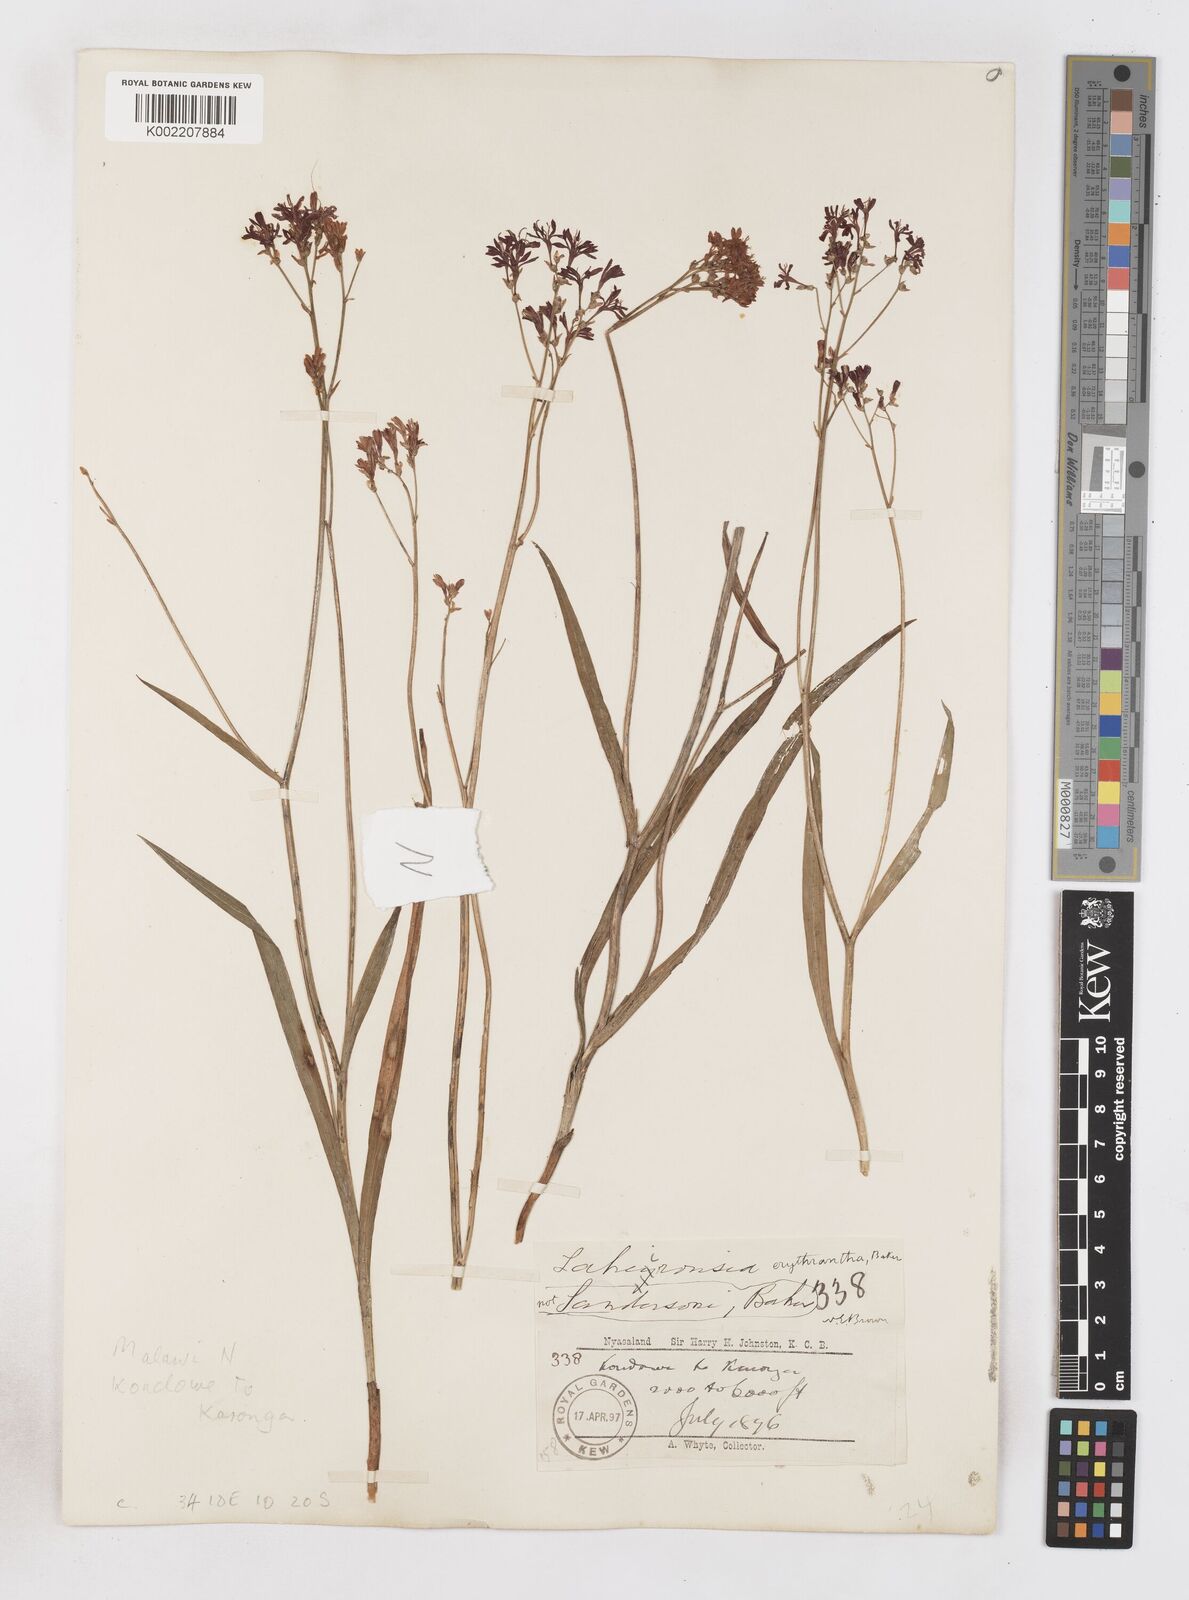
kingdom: Plantae
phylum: Tracheophyta
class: Liliopsida
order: Asparagales
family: Iridaceae
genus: Afrosolen
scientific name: Afrosolen erythranthus
